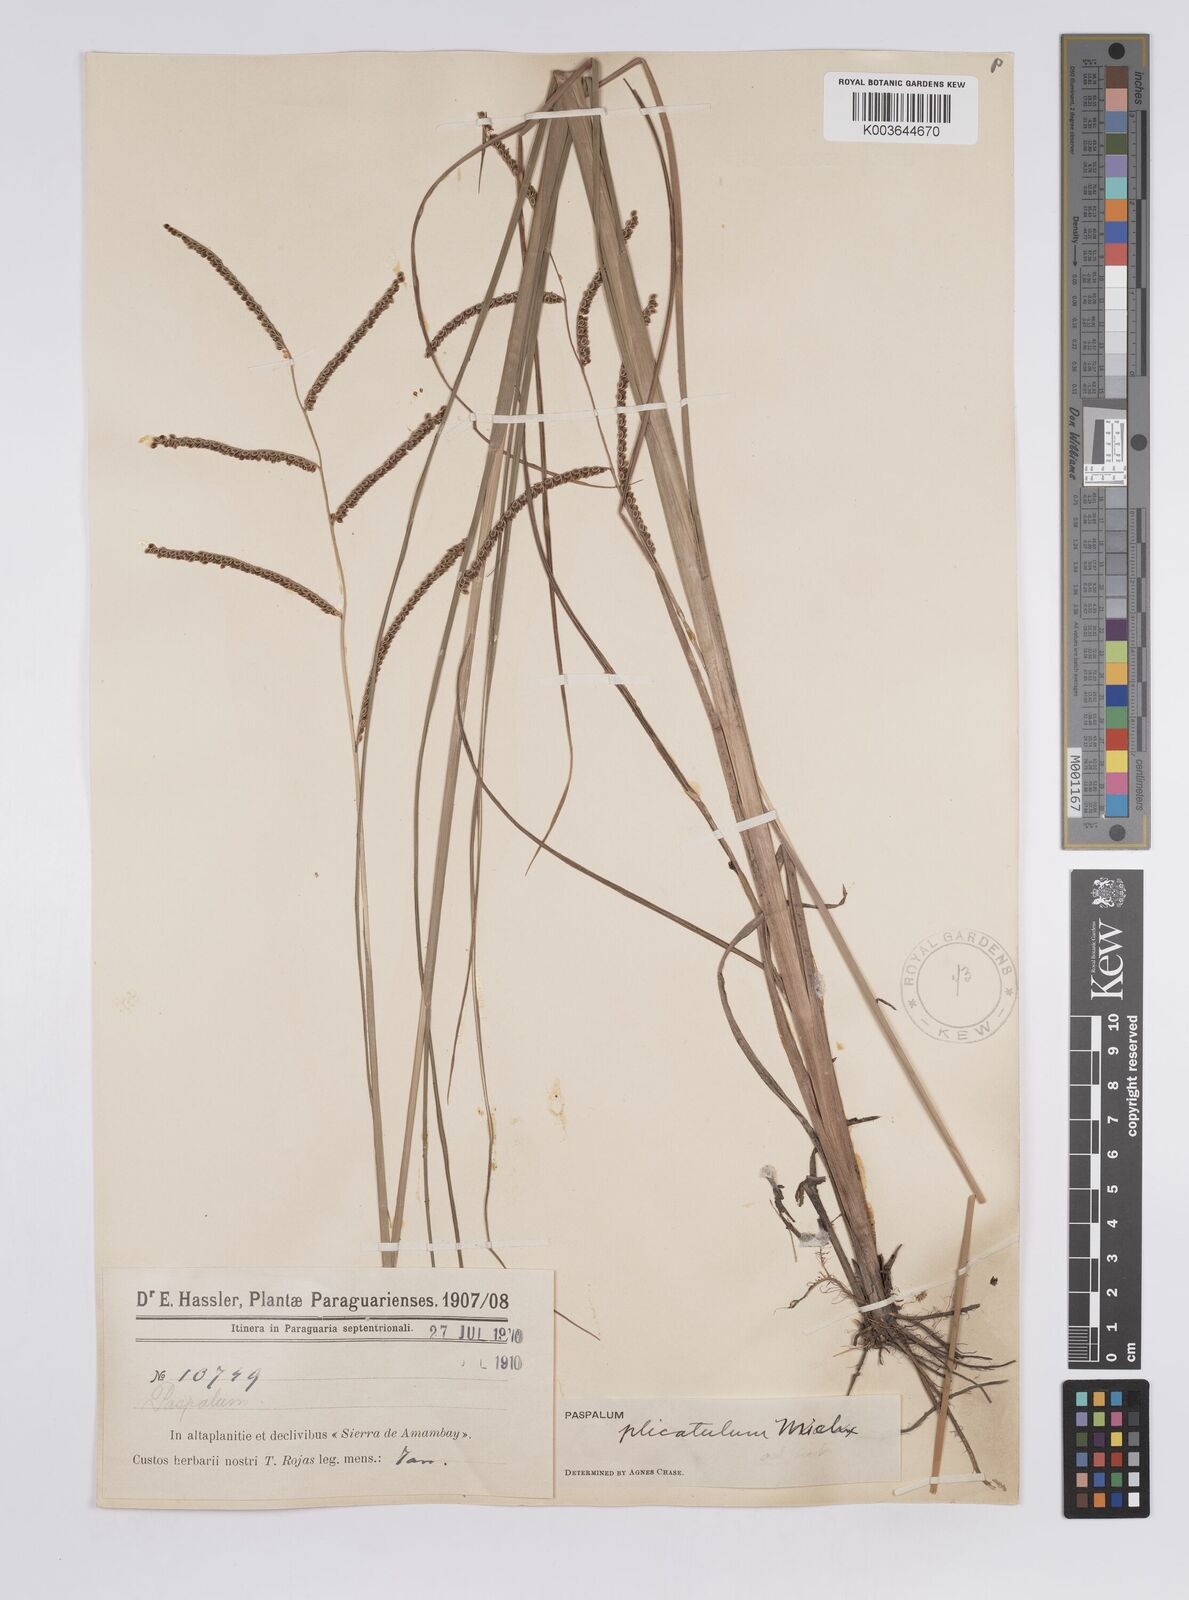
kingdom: Plantae
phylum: Tracheophyta
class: Liliopsida
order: Poales
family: Poaceae
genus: Paspalum
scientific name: Paspalum plicatulum
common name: Top paspalum
